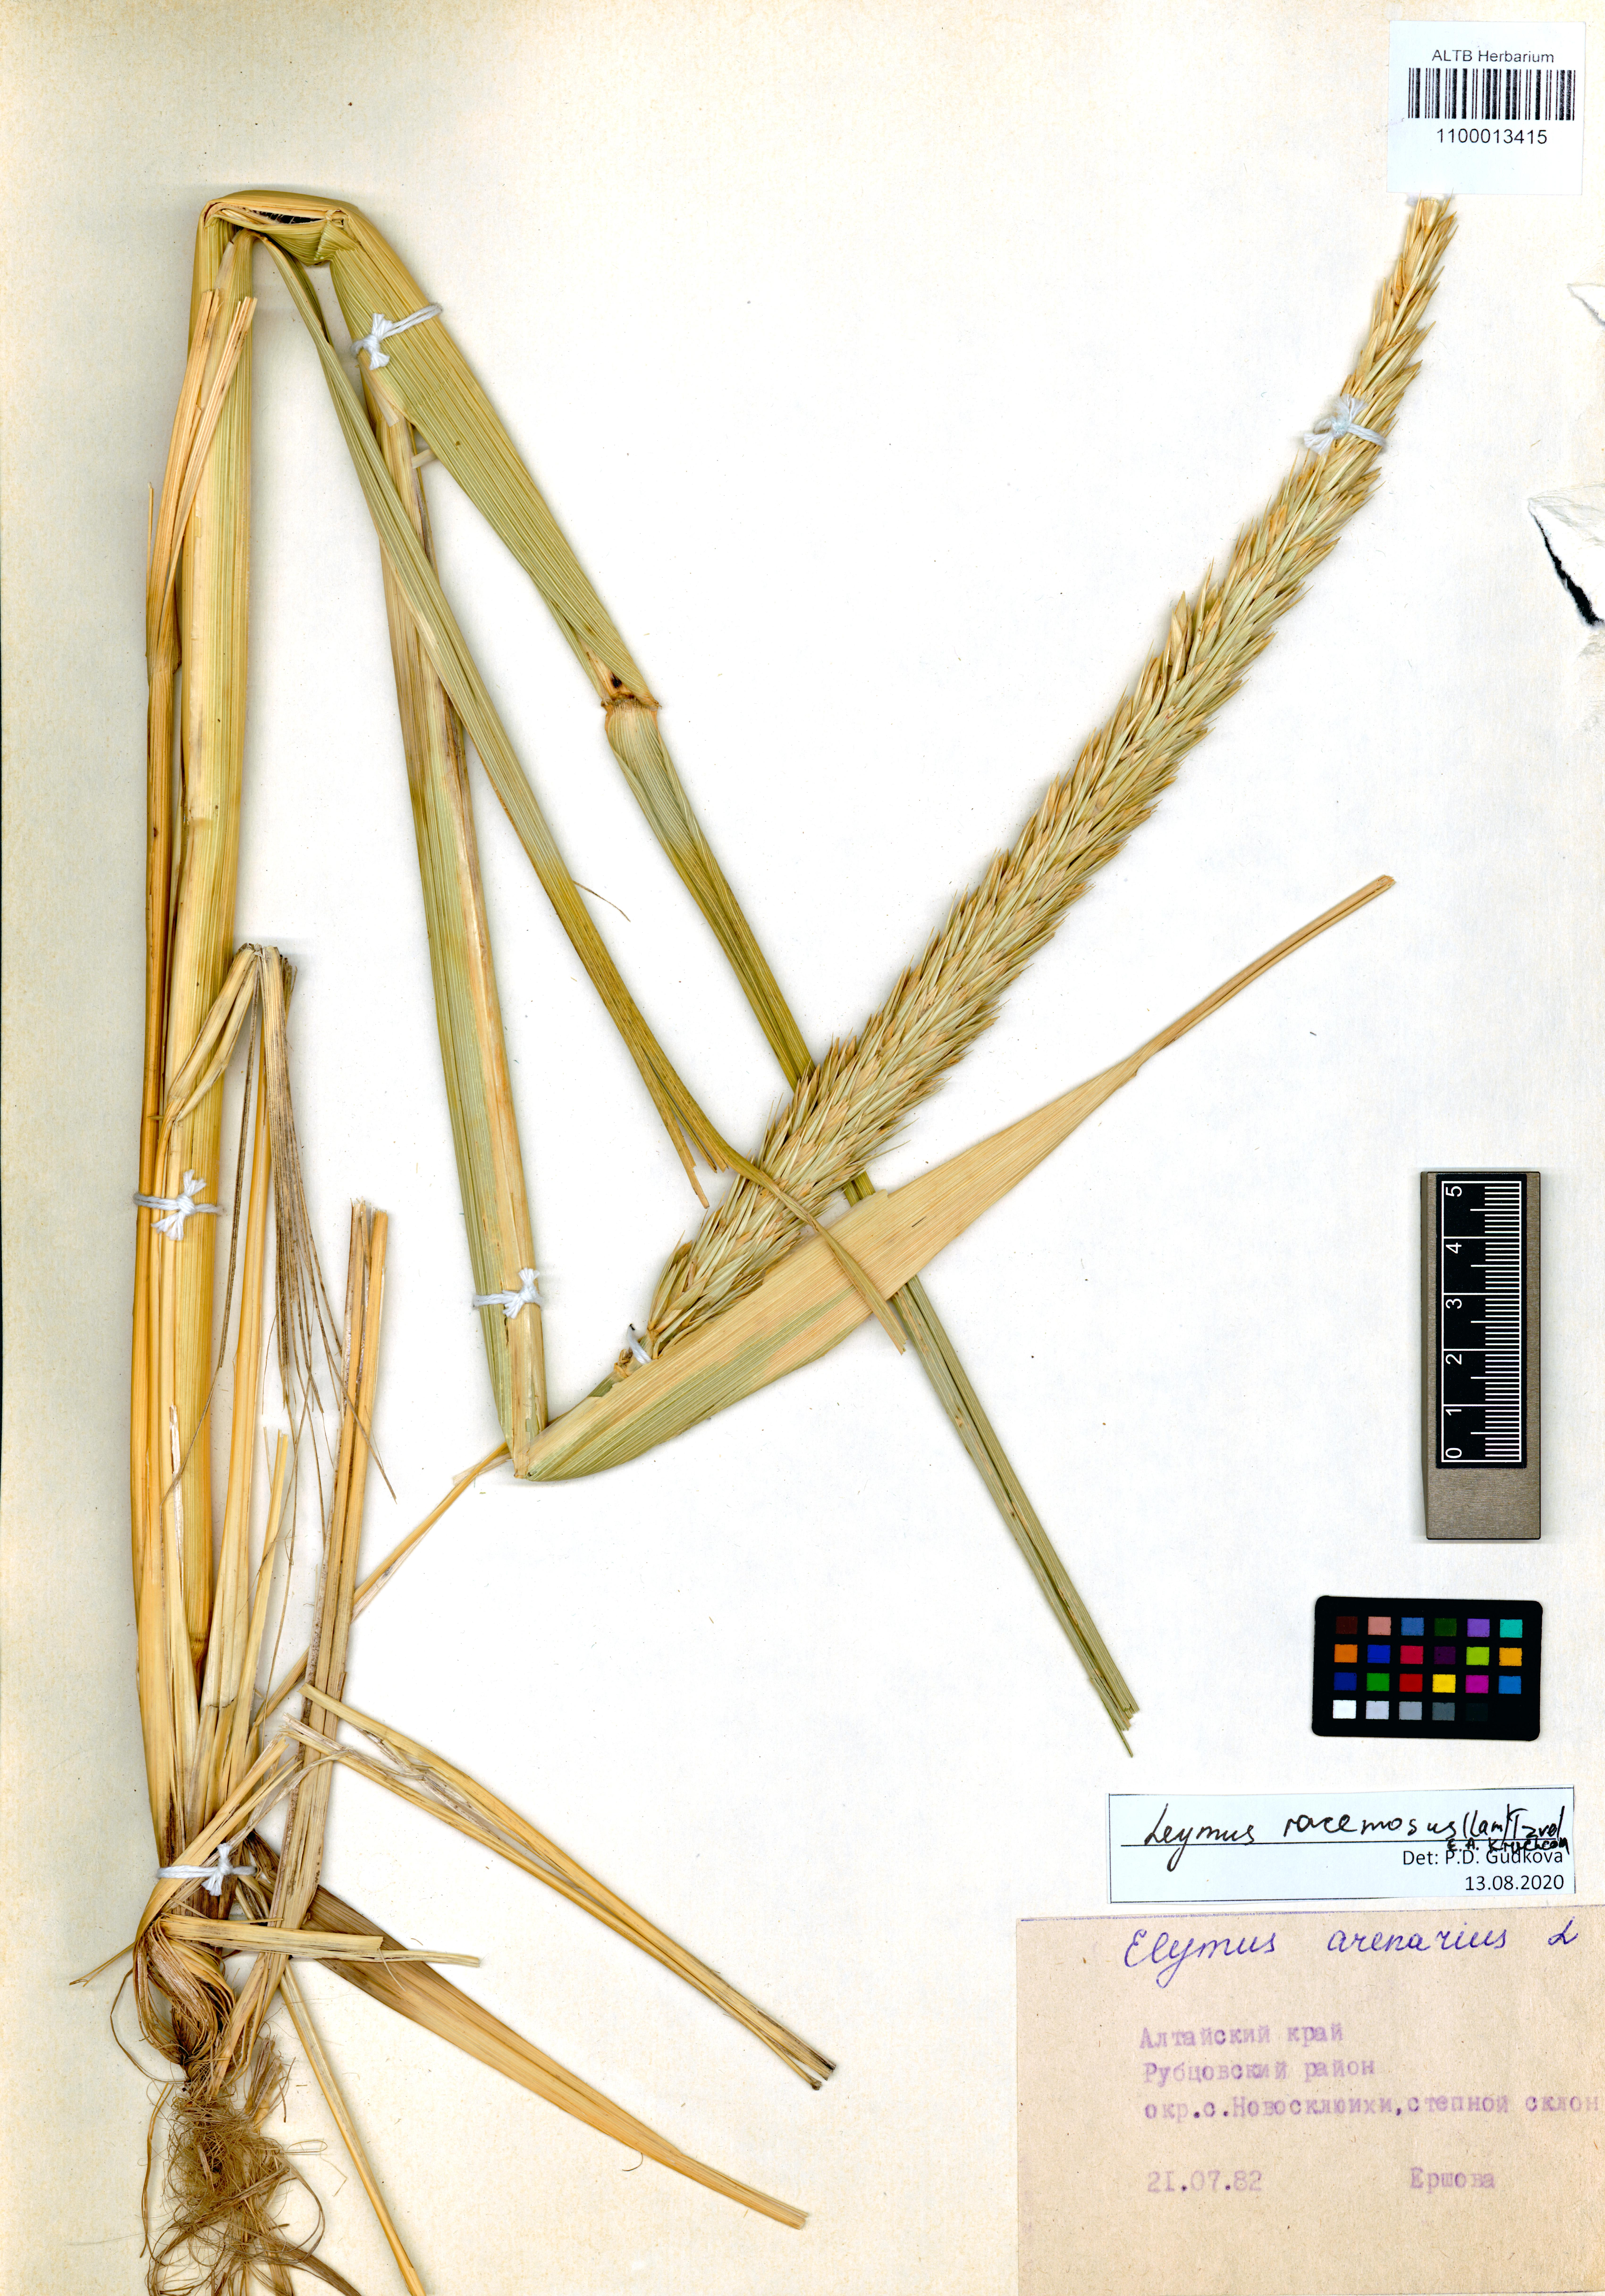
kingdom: Plantae
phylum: Tracheophyta
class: Liliopsida
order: Poales
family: Poaceae
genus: Leymus
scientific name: Leymus racemosus
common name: Mammoth wildrye
